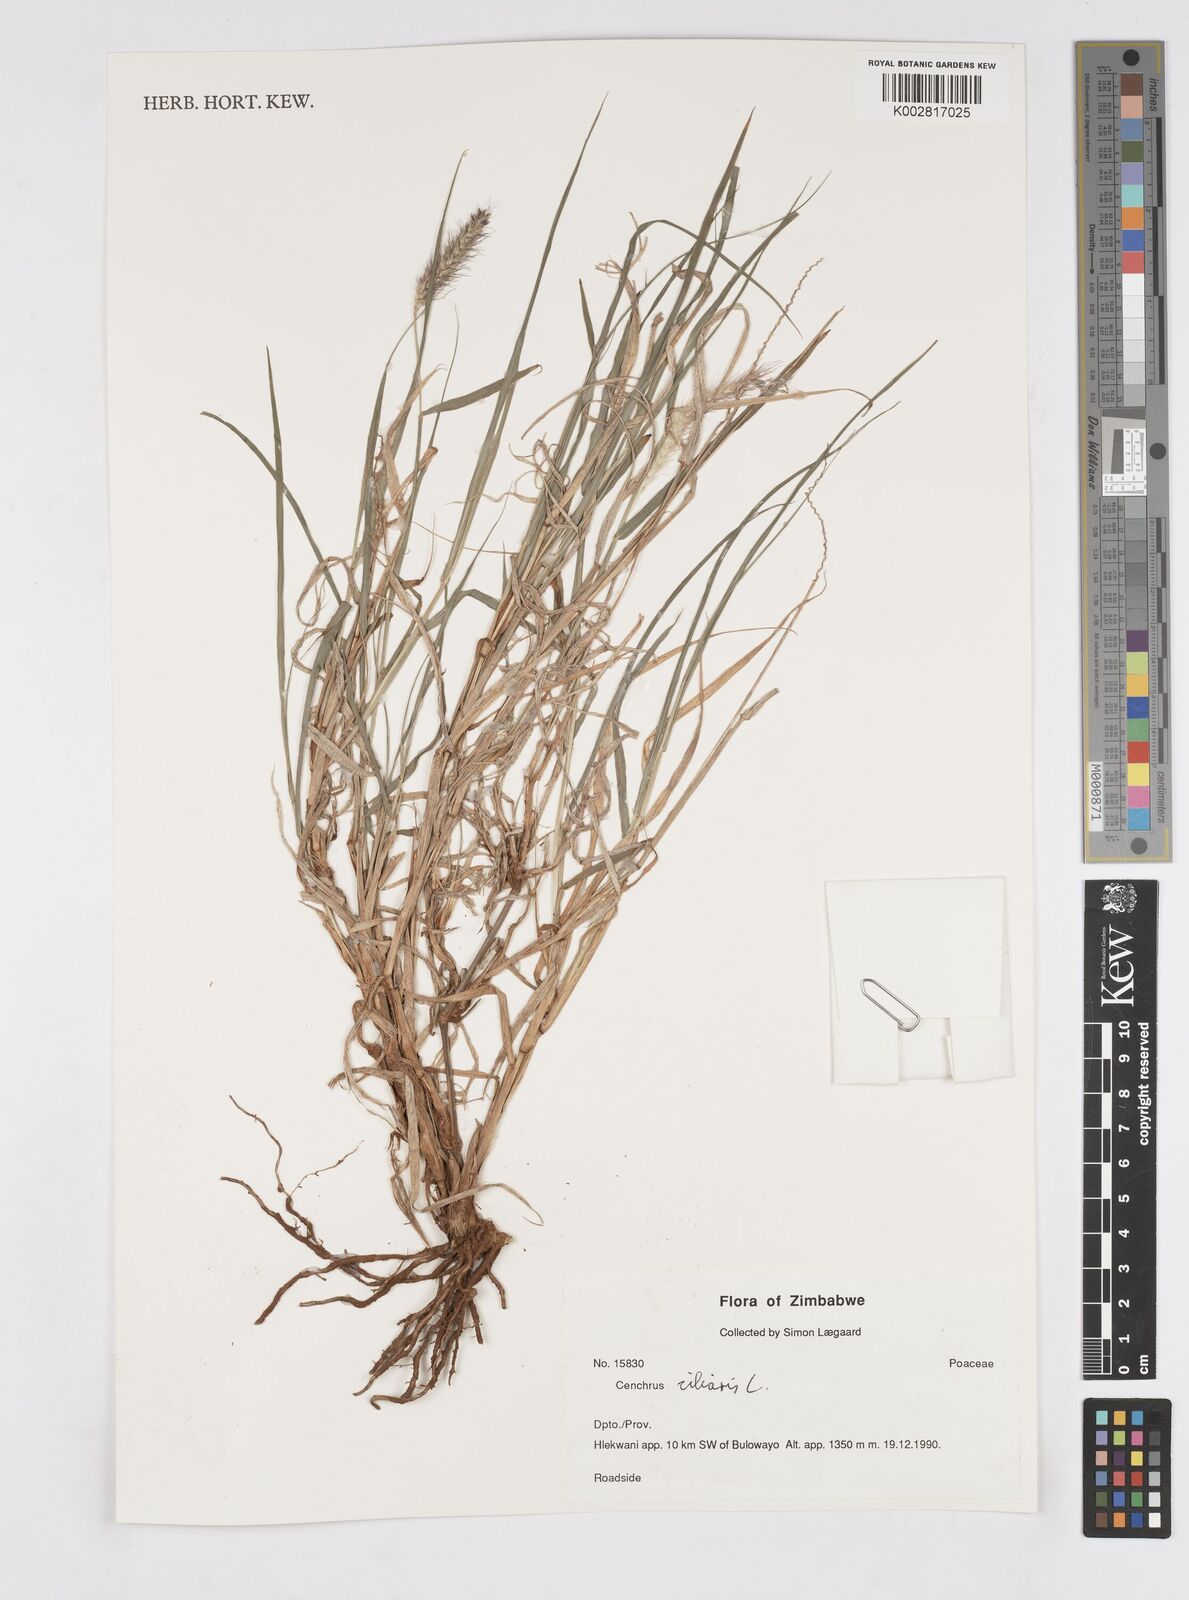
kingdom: Plantae
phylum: Tracheophyta
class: Liliopsida
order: Poales
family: Poaceae
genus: Cenchrus
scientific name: Cenchrus ciliaris
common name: Buffelgrass
